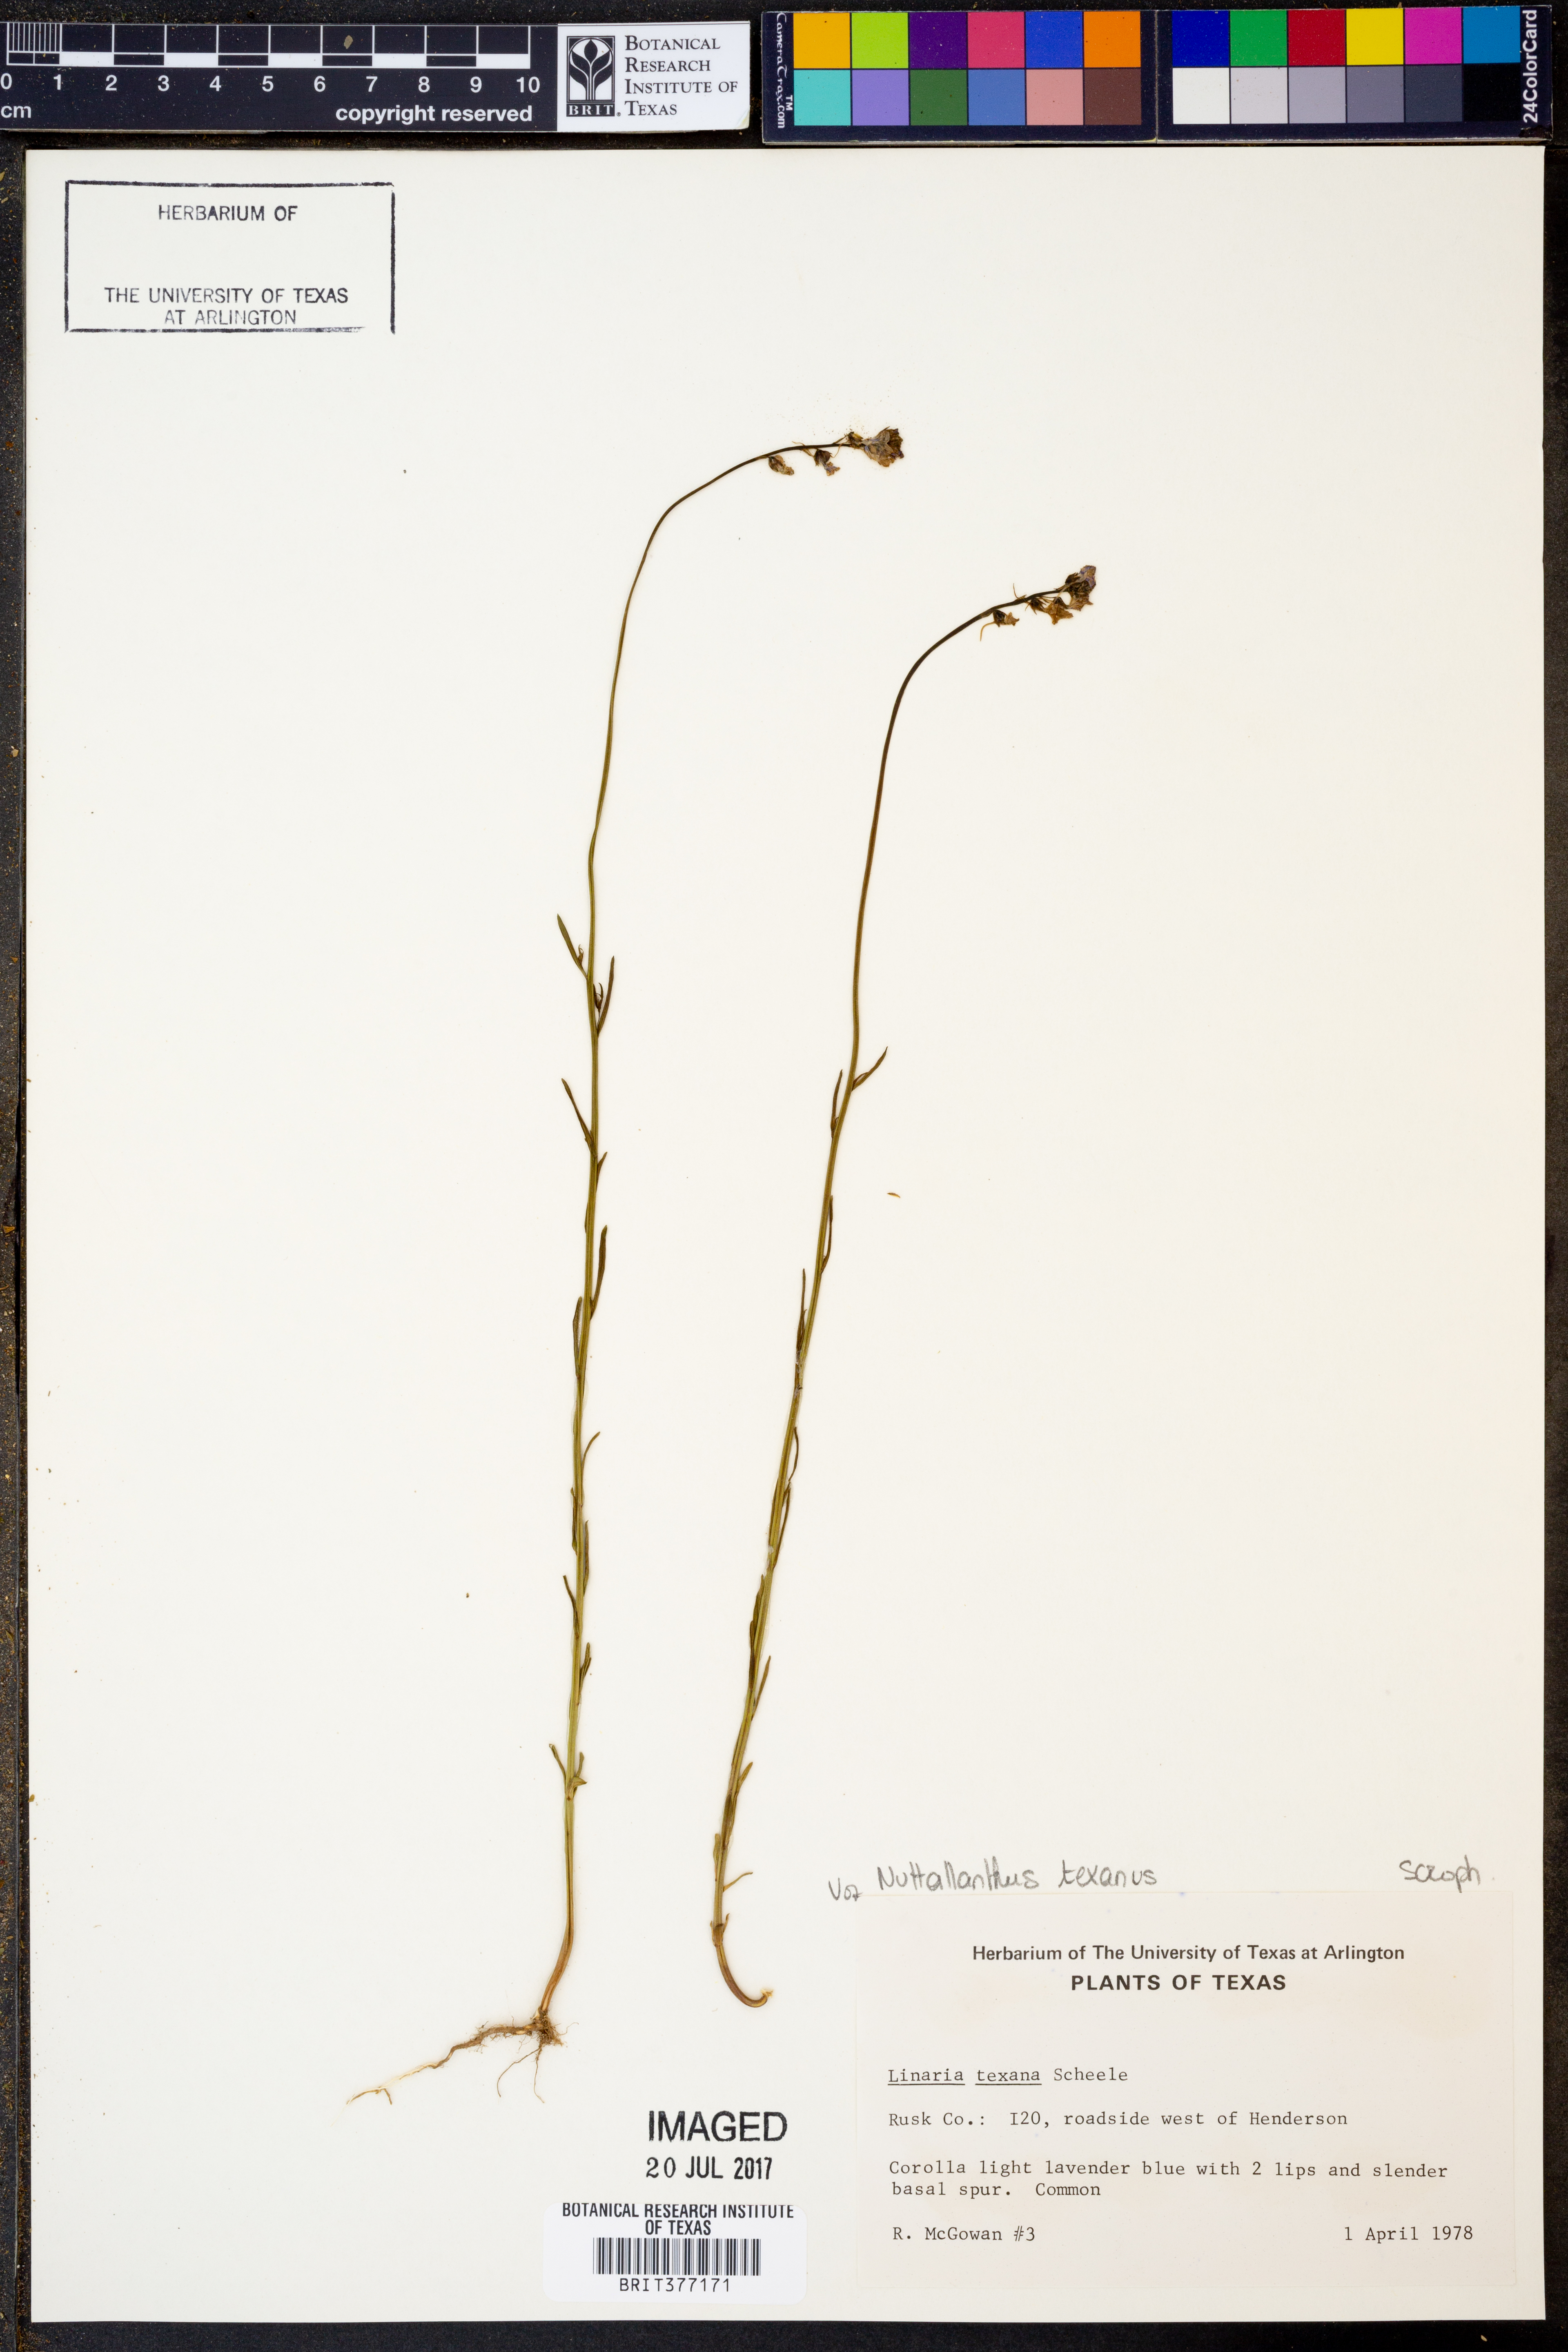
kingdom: Plantae
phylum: Tracheophyta
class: Magnoliopsida
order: Lamiales
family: Plantaginaceae
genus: Nuttallanthus
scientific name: Nuttallanthus texanus
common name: Texas toadflax
